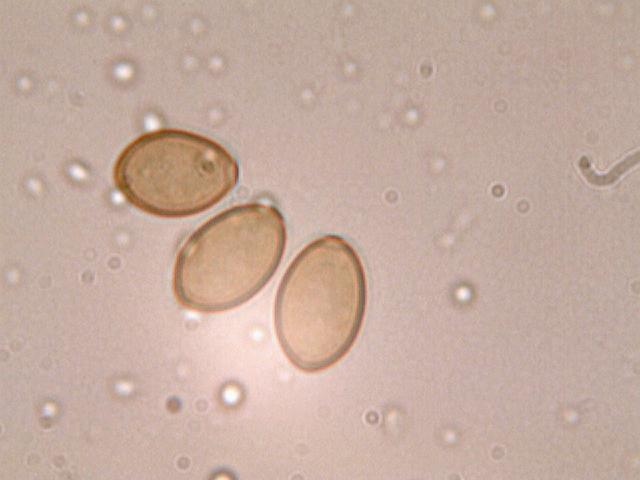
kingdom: Fungi
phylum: Basidiomycota
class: Agaricomycetes
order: Agaricales
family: Strophariaceae
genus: Agrocybe
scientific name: Agrocybe pediades
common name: almindelig agerhat
